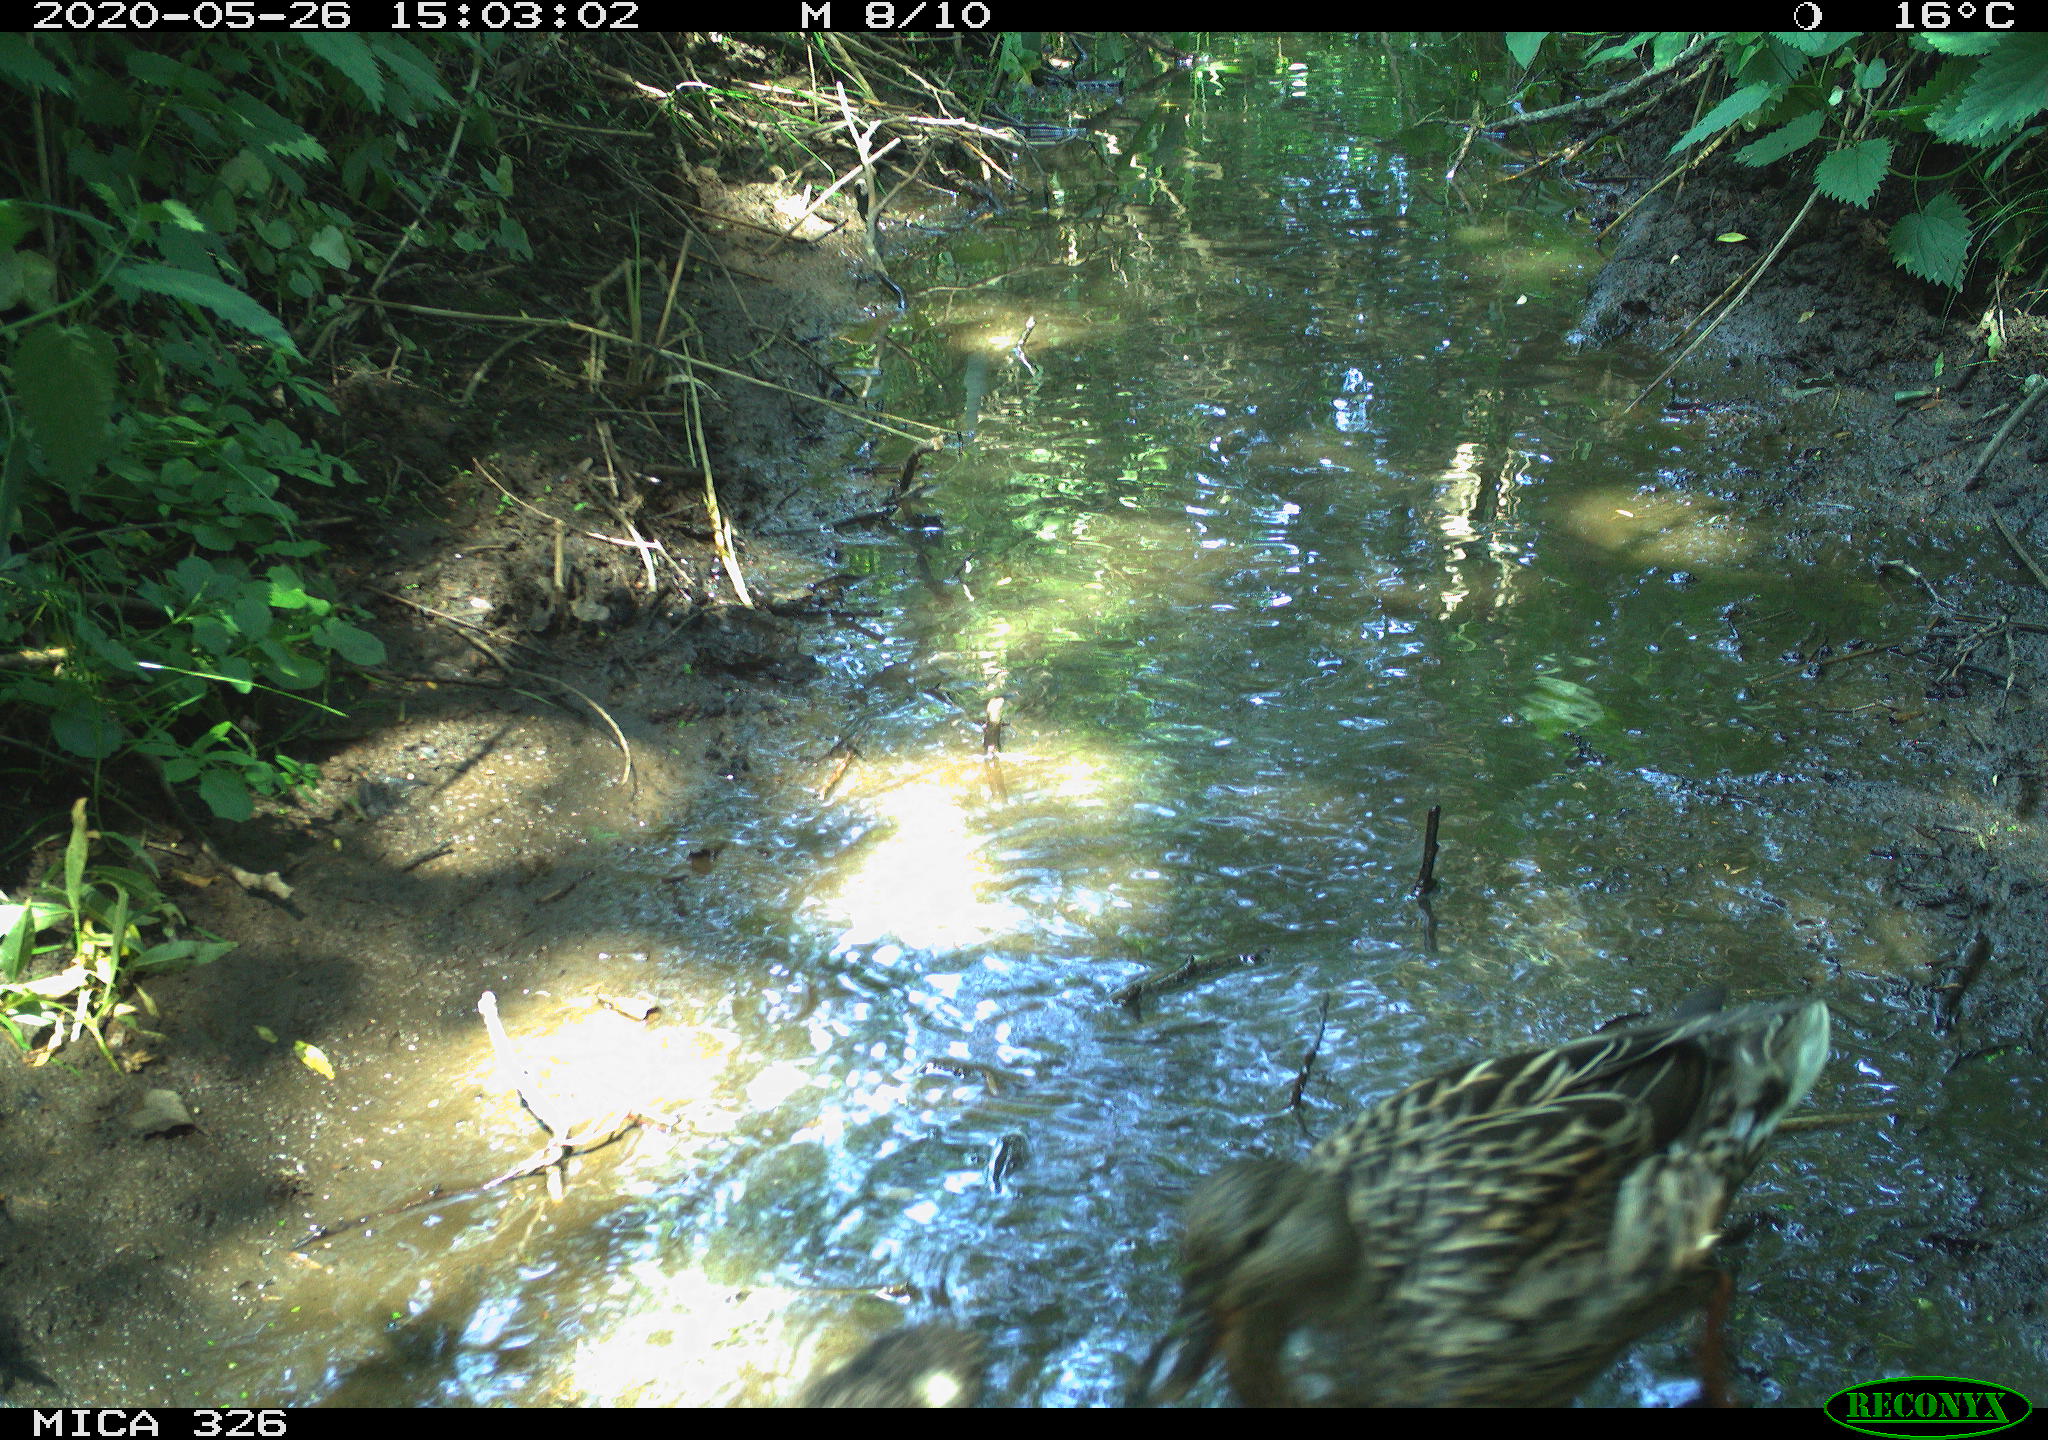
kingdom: Animalia
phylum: Chordata
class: Aves
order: Anseriformes
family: Anatidae
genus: Anas
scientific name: Anas platyrhynchos
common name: Mallard
